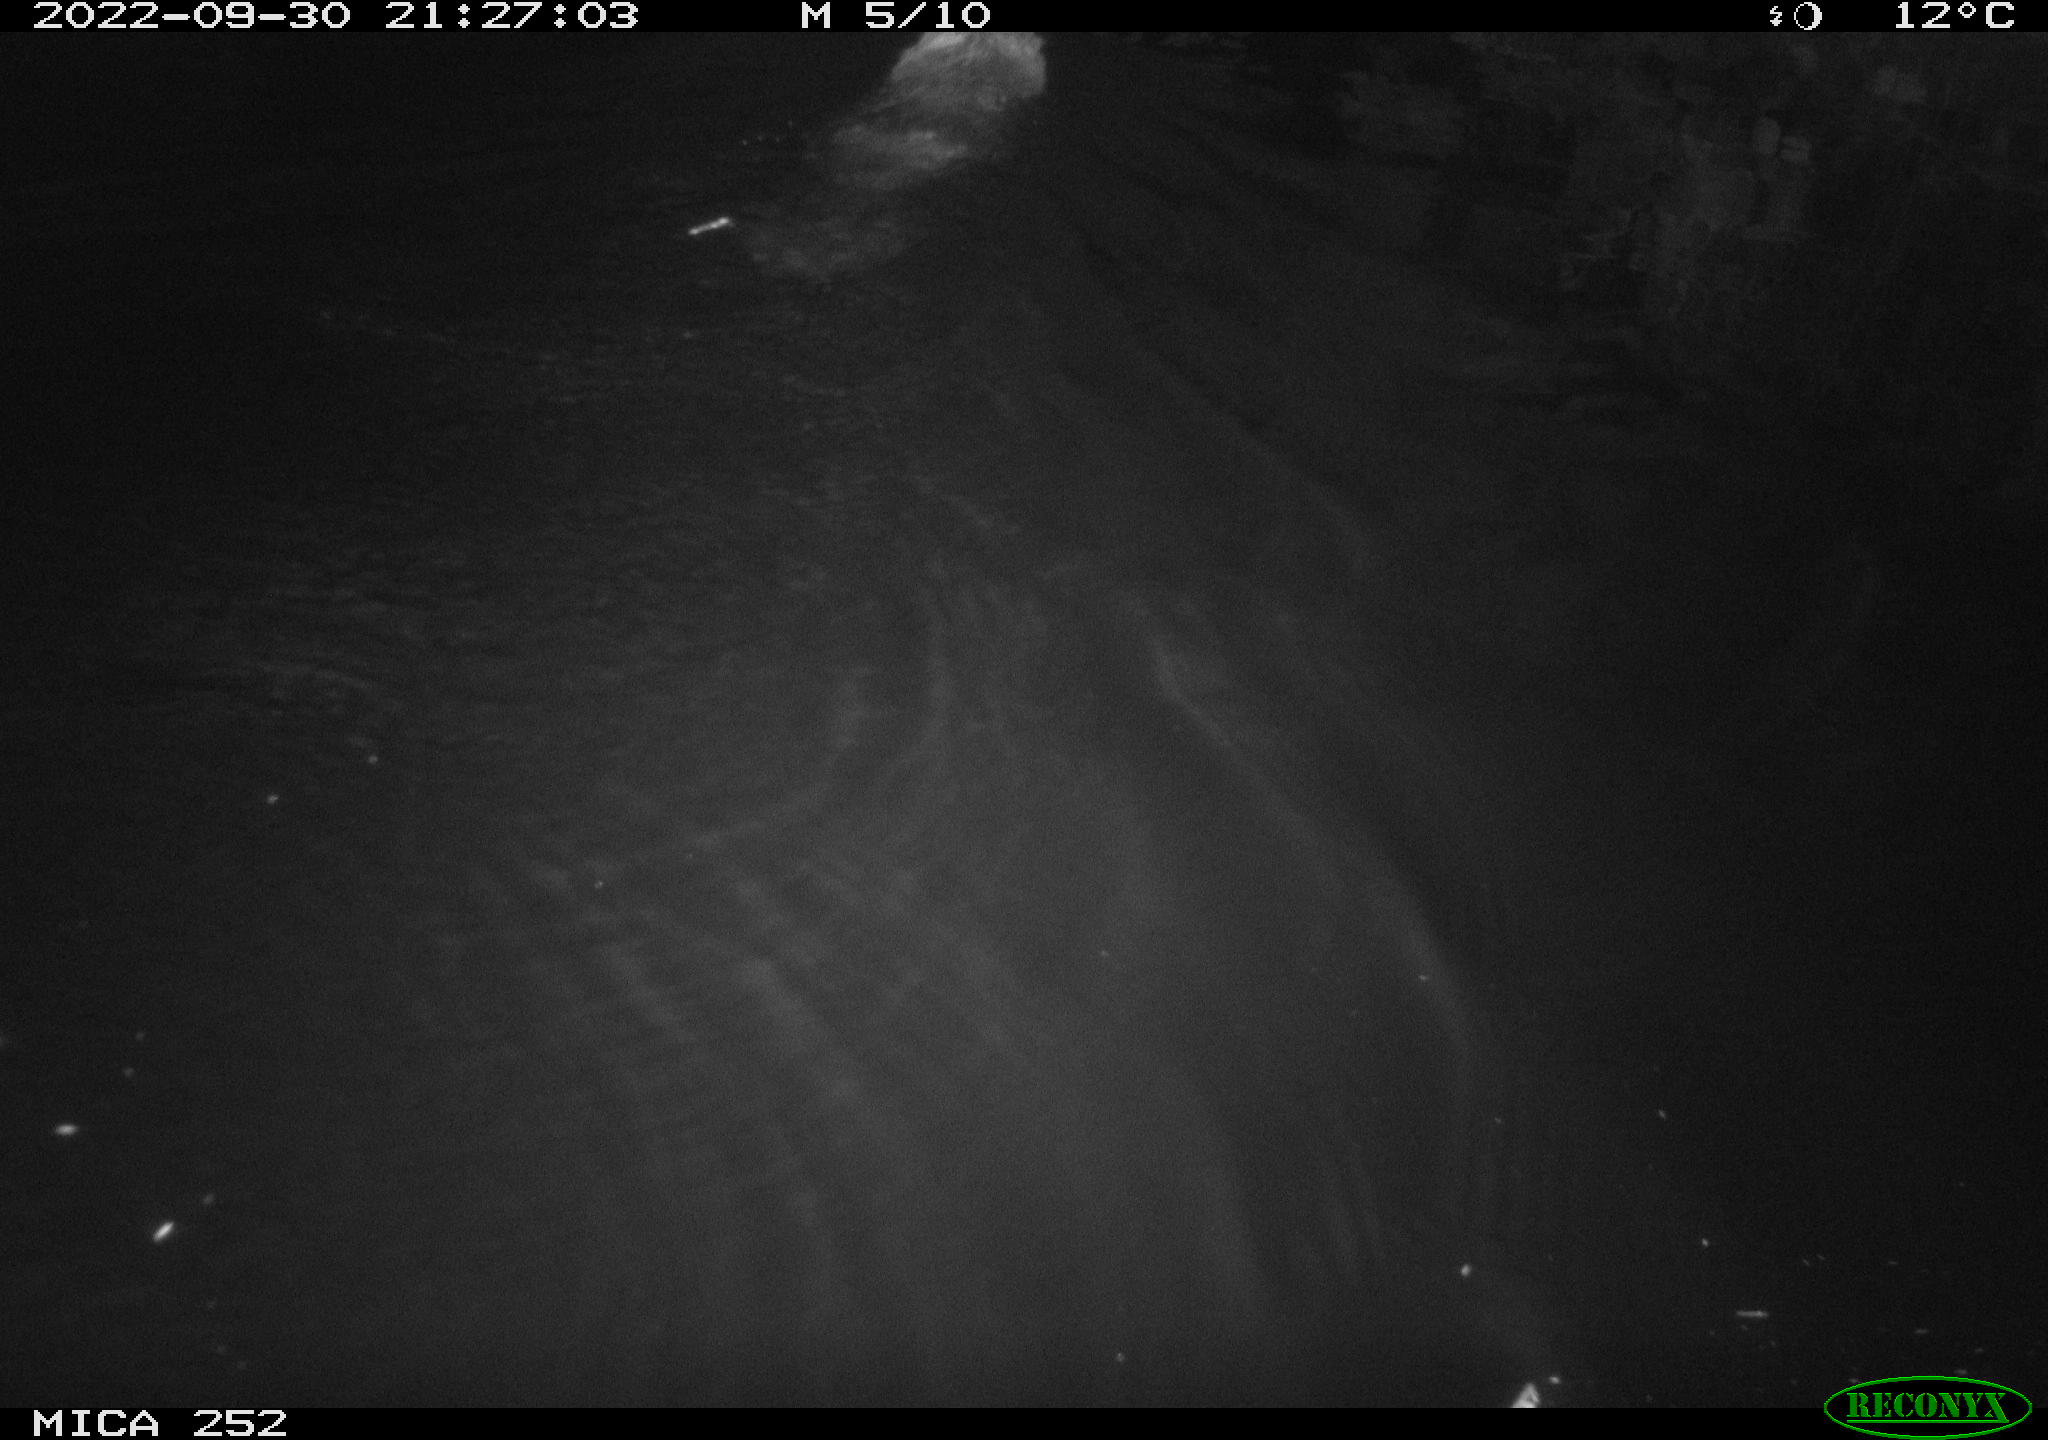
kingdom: Animalia
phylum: Chordata
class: Mammalia
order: Rodentia
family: Castoridae
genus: Castor
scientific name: Castor fiber
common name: Eurasian beaver
